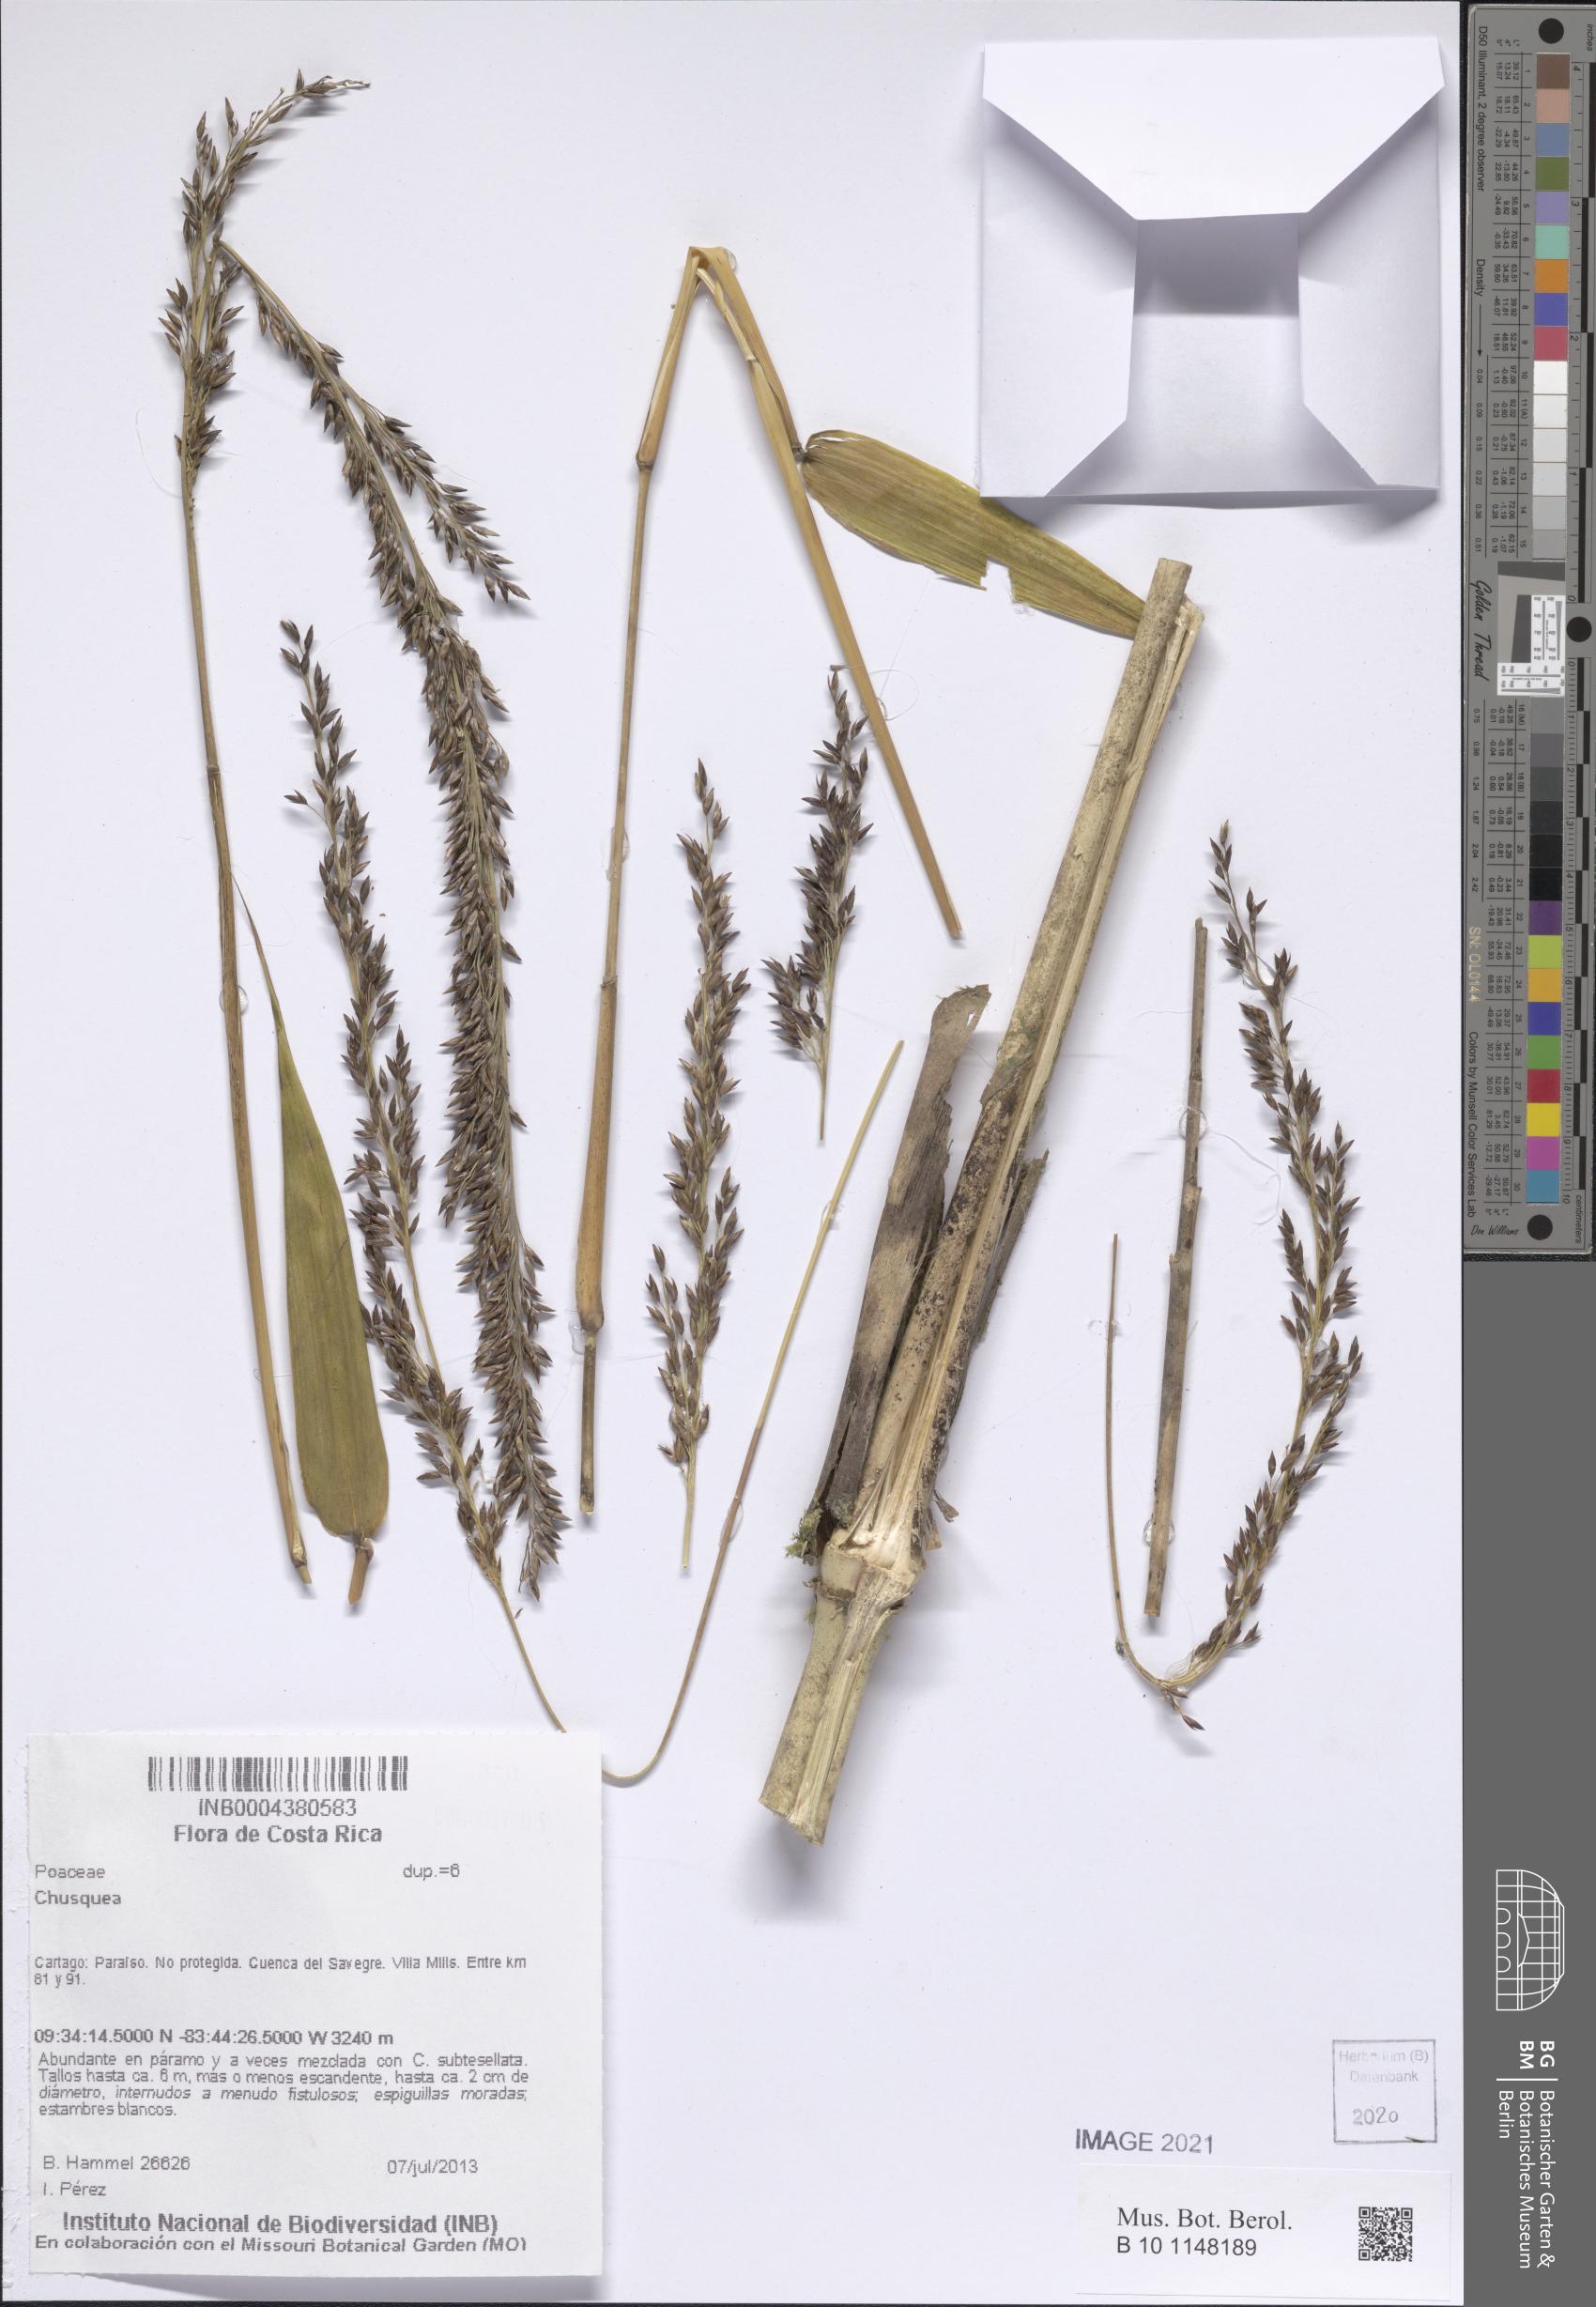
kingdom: Plantae
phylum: Tracheophyta
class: Liliopsida
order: Poales
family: Poaceae
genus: Chusquea
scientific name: Chusquea
